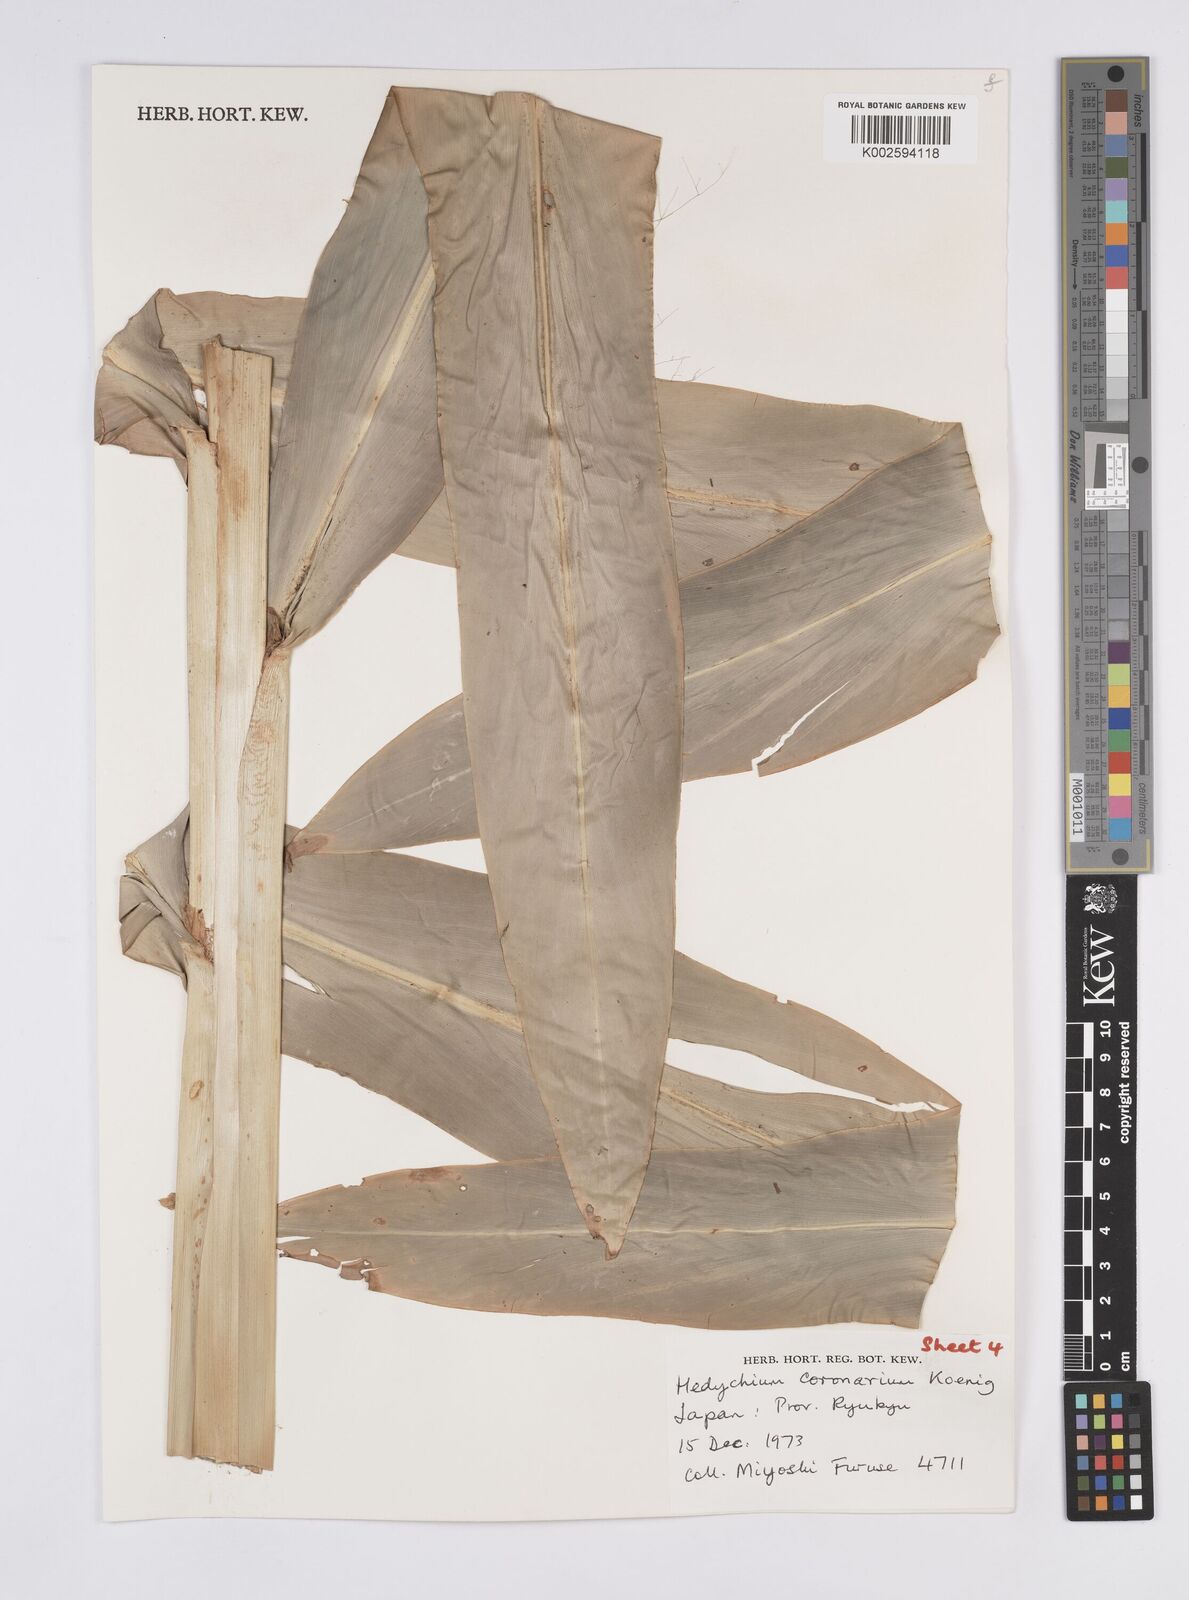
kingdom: Plantae
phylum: Tracheophyta
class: Liliopsida
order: Zingiberales
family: Zingiberaceae
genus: Hedychium
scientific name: Hedychium coronarium
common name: White garland-lily
